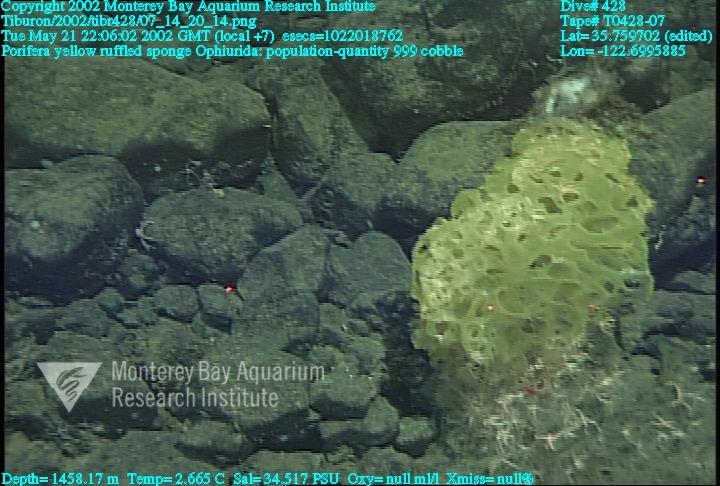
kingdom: Animalia
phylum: Porifera
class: Hexactinellida
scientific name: Hexactinellida
